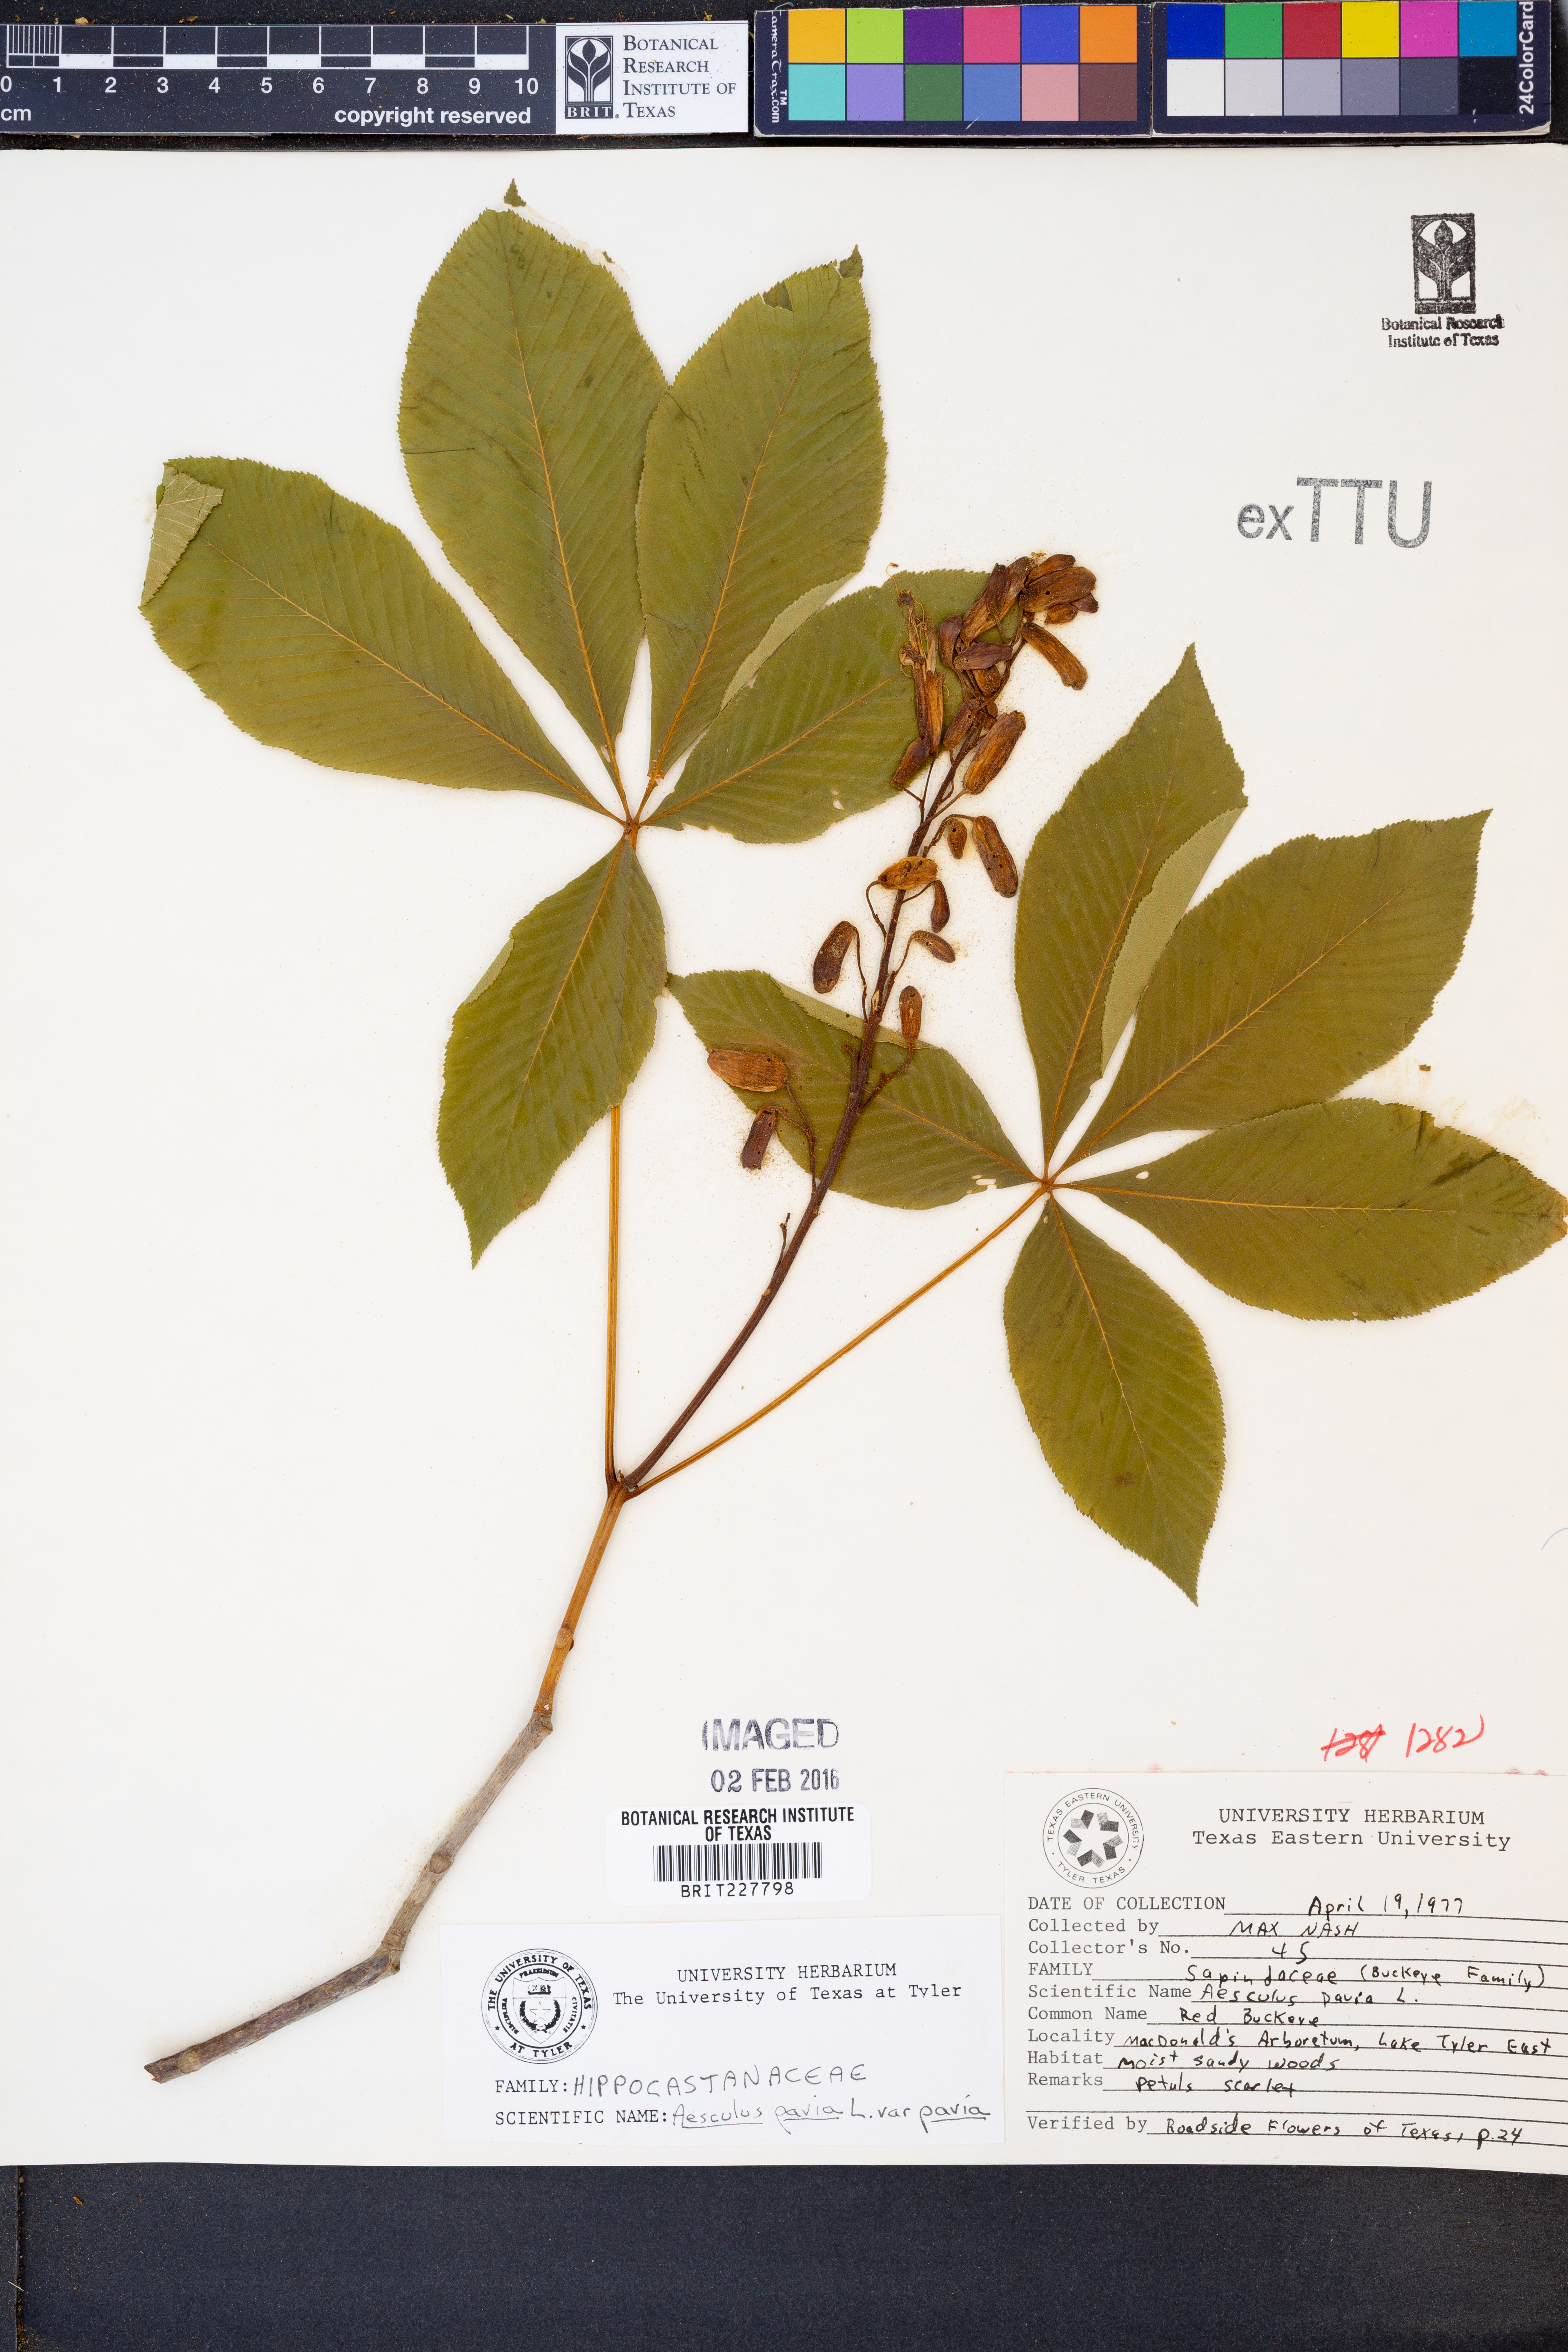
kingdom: Plantae
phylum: Tracheophyta
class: Magnoliopsida
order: Sapindales
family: Sapindaceae
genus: Aesculus
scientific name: Aesculus pavia
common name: Red buckeye
